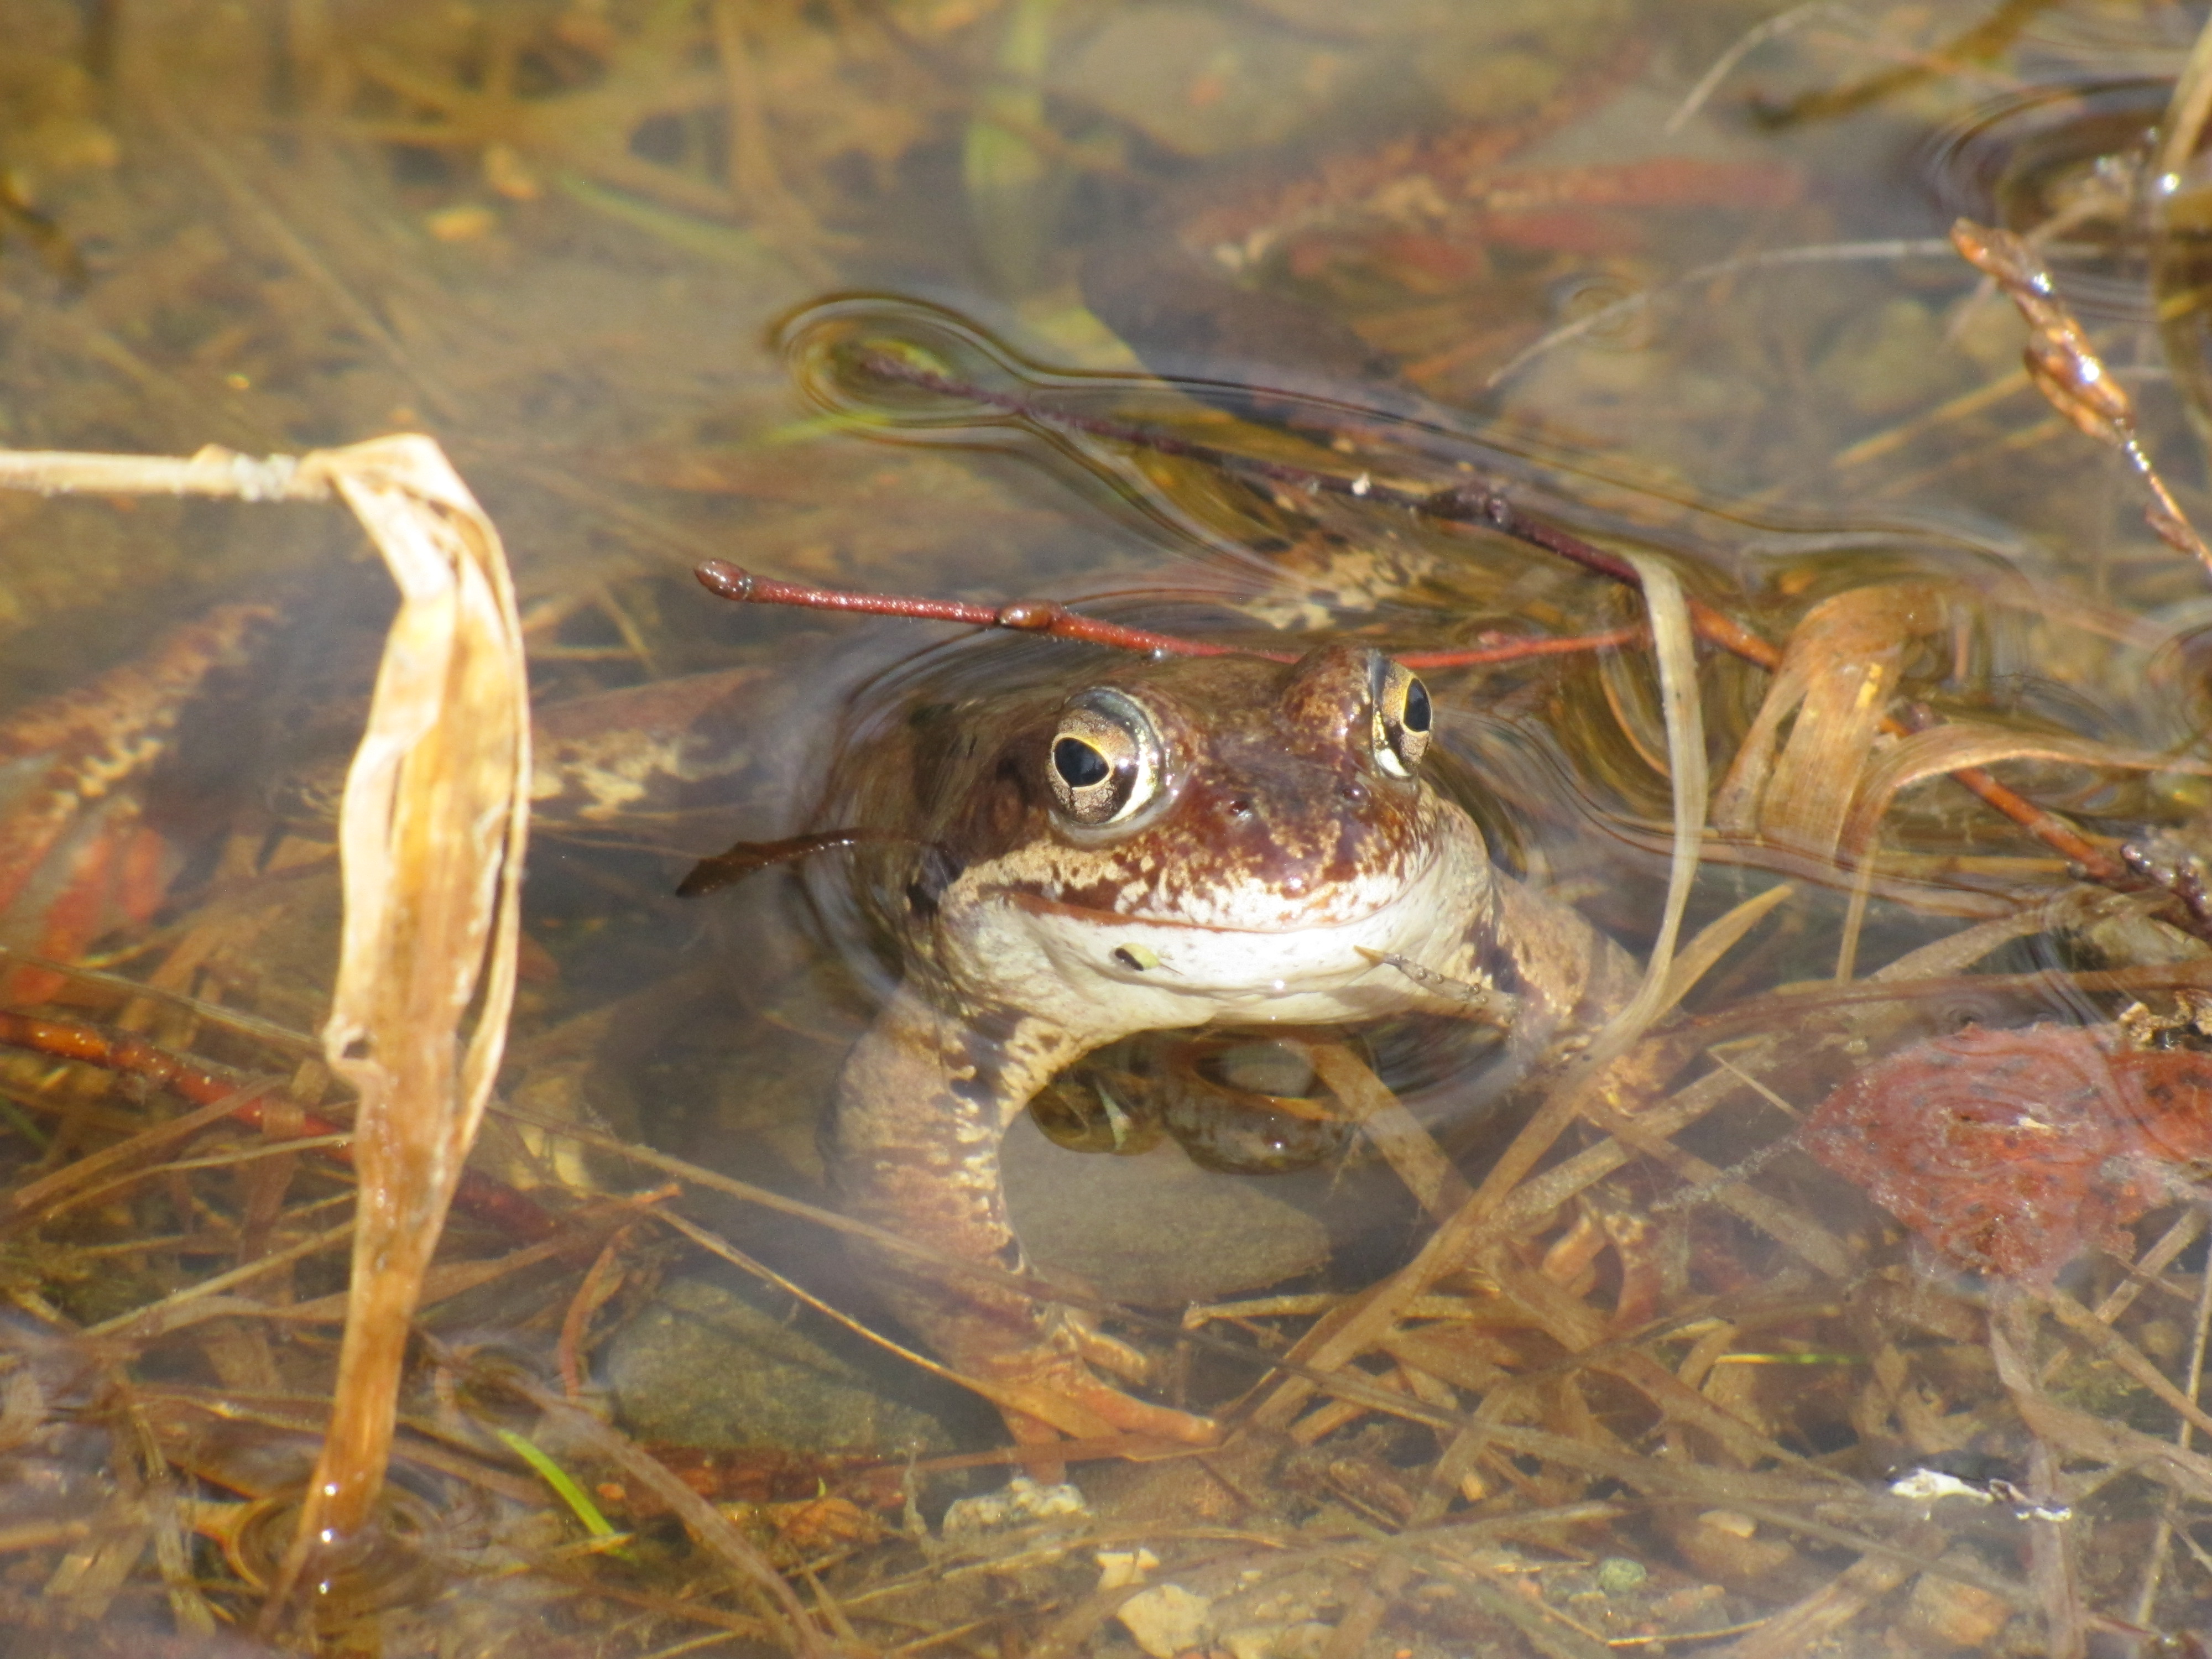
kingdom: Animalia
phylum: Chordata
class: Amphibia
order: Anura
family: Ranidae
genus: Rana
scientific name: Rana temporaria
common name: Common frog
